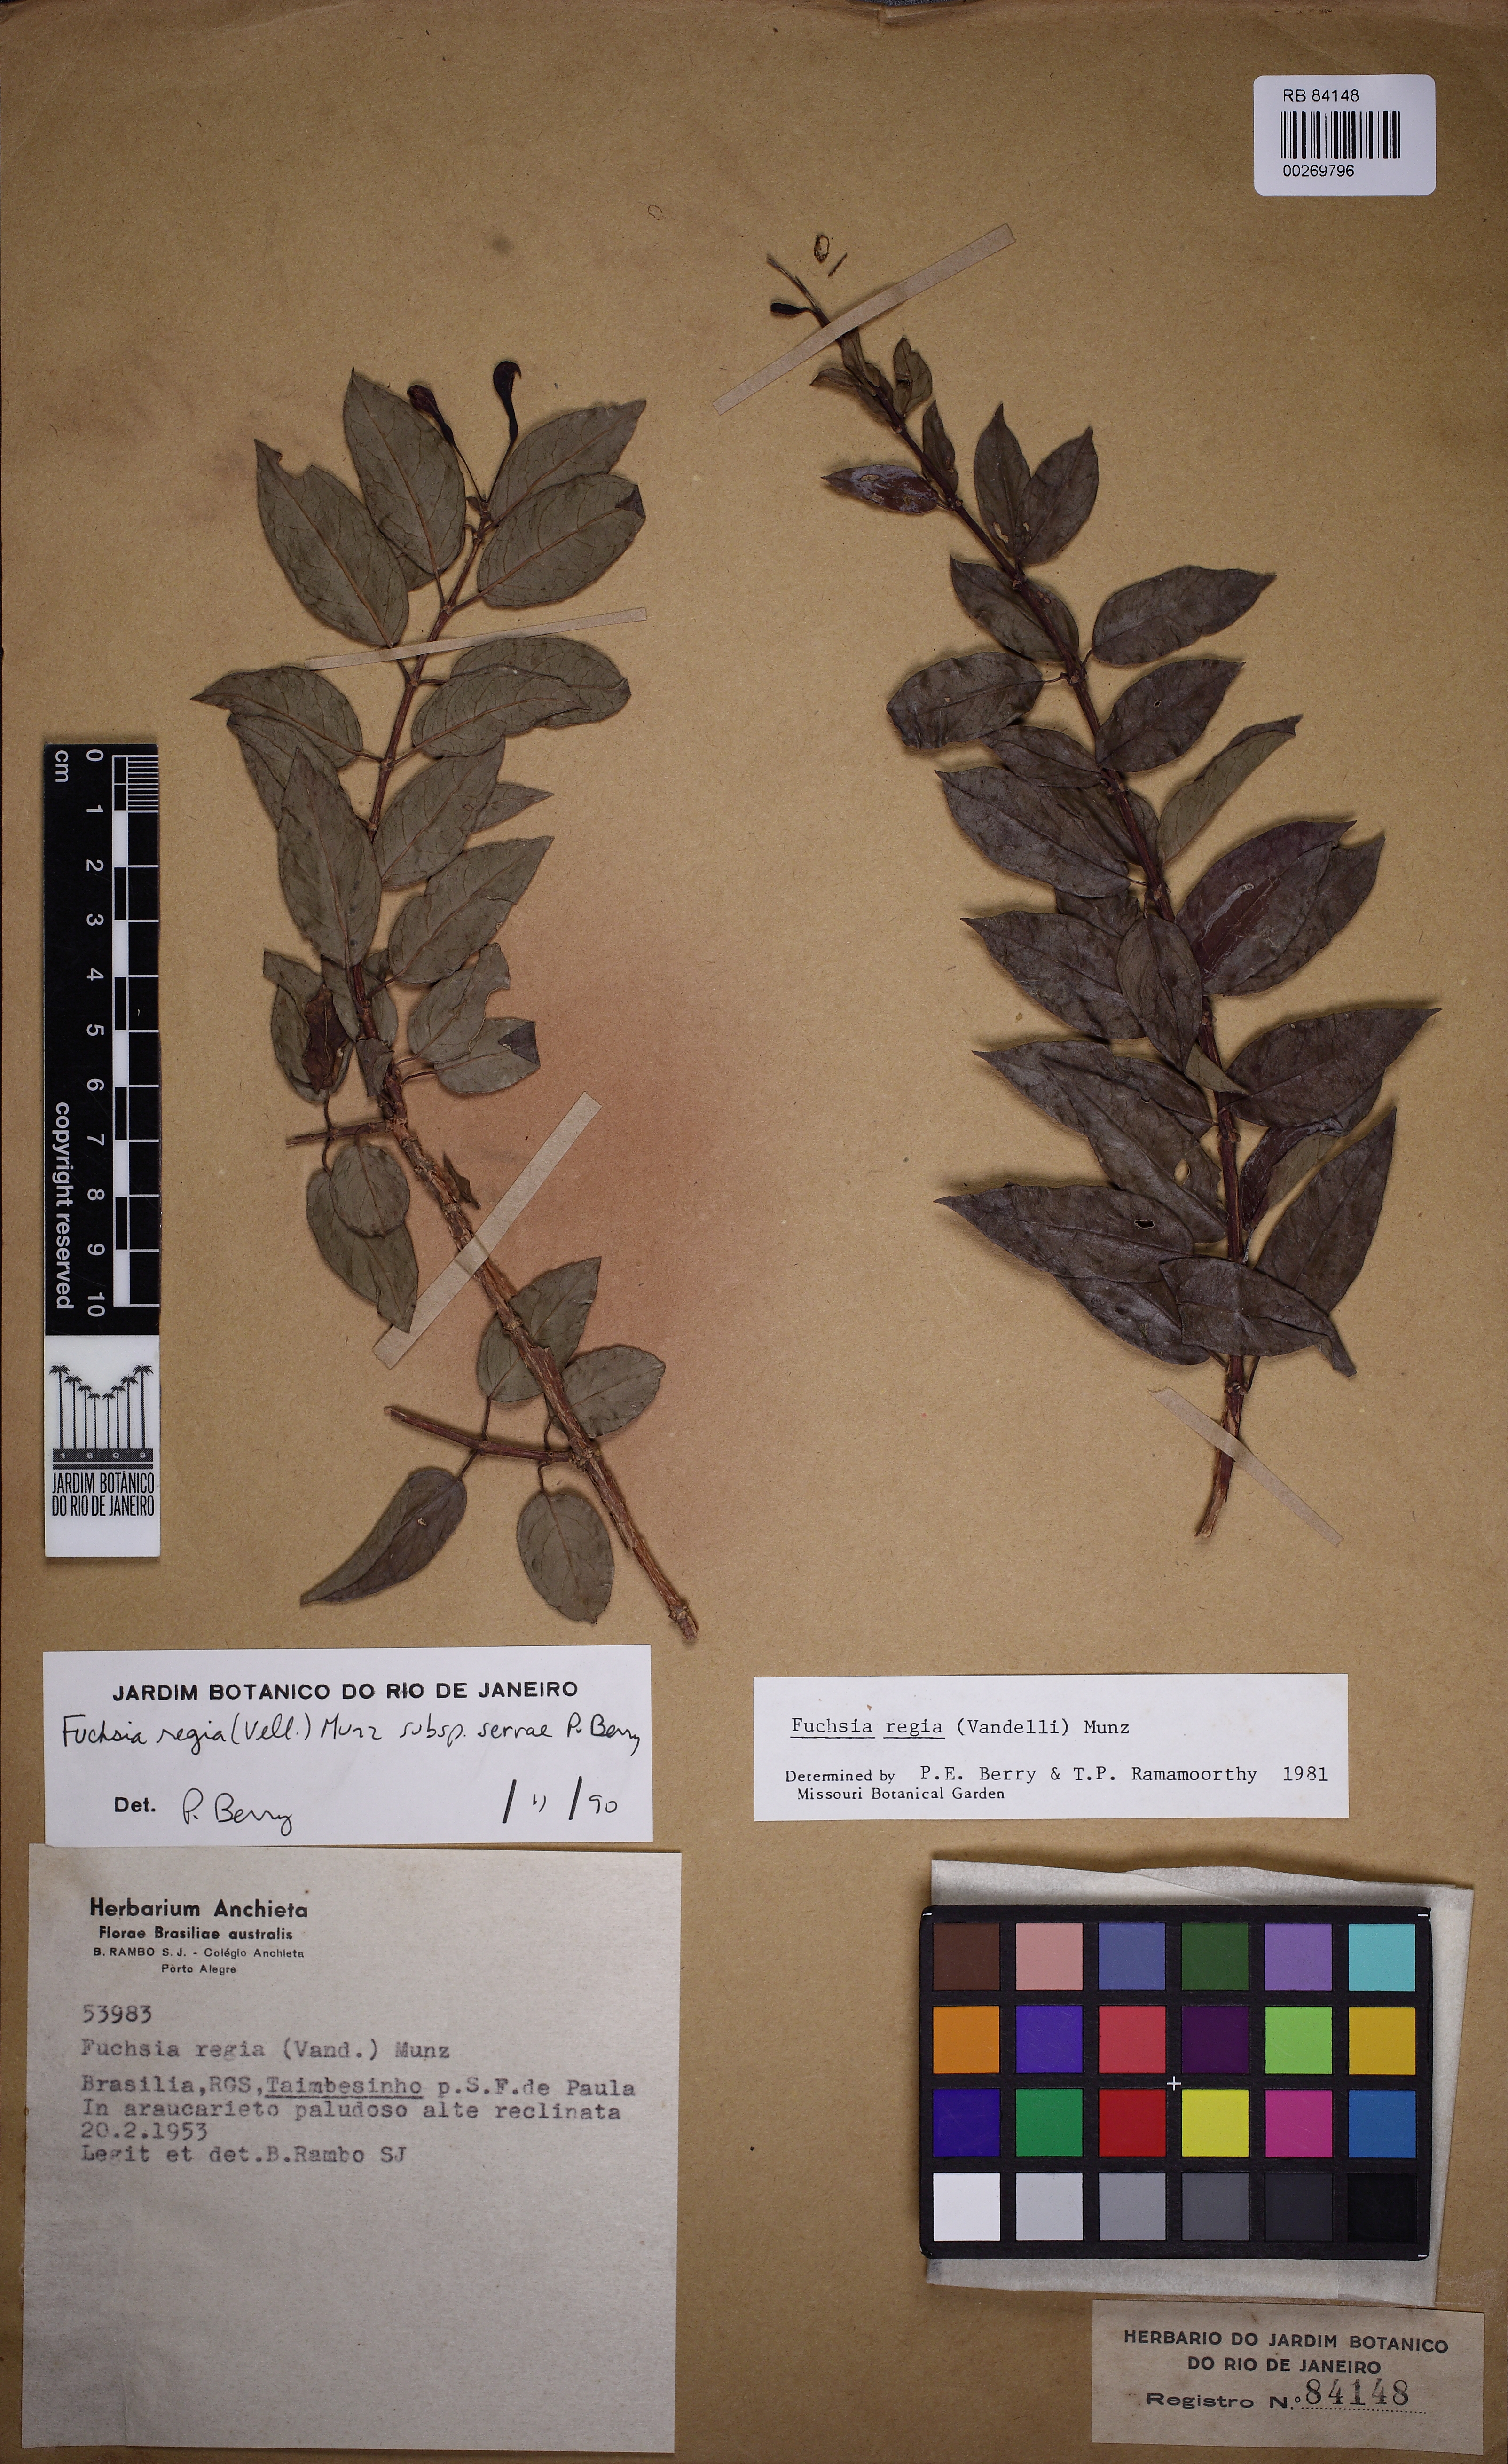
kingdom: Plantae
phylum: Tracheophyta
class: Magnoliopsida
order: Myrtales
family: Onagraceae
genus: Fuchsia
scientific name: Fuchsia regia
